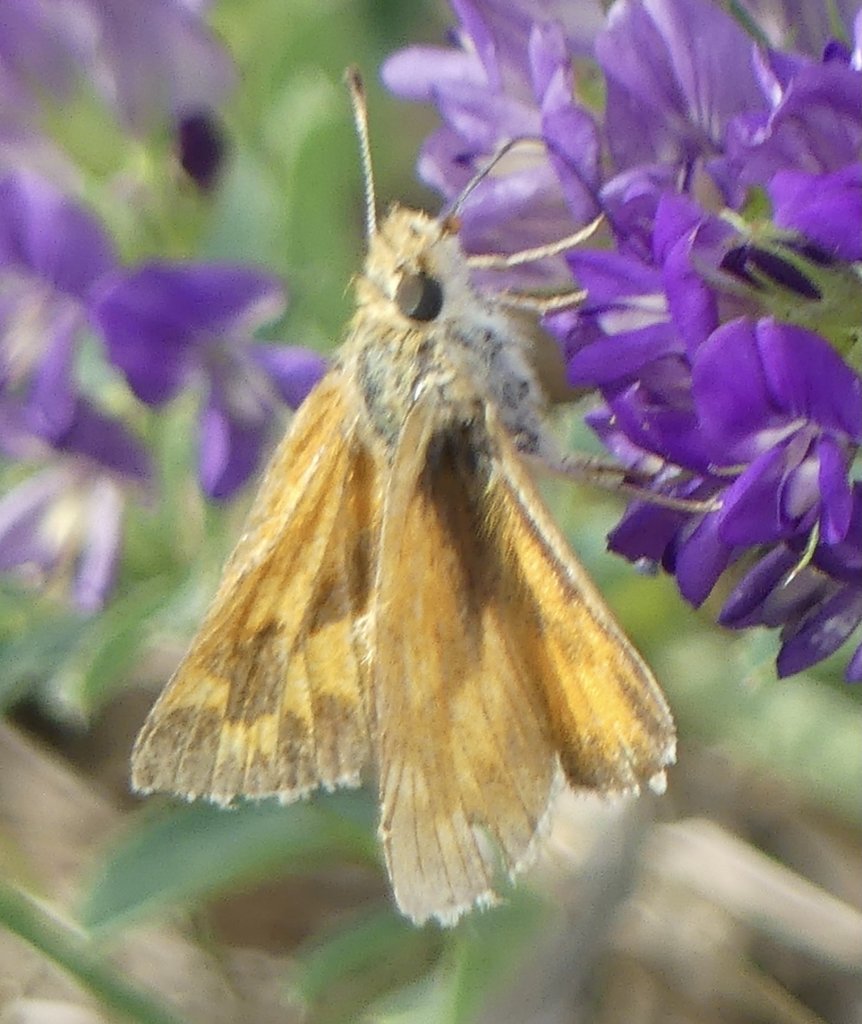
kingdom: Animalia
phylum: Arthropoda
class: Insecta
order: Lepidoptera
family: Hesperiidae
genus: Ochlodes
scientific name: Ochlodes sylvanoides
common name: Woodland Skipper
